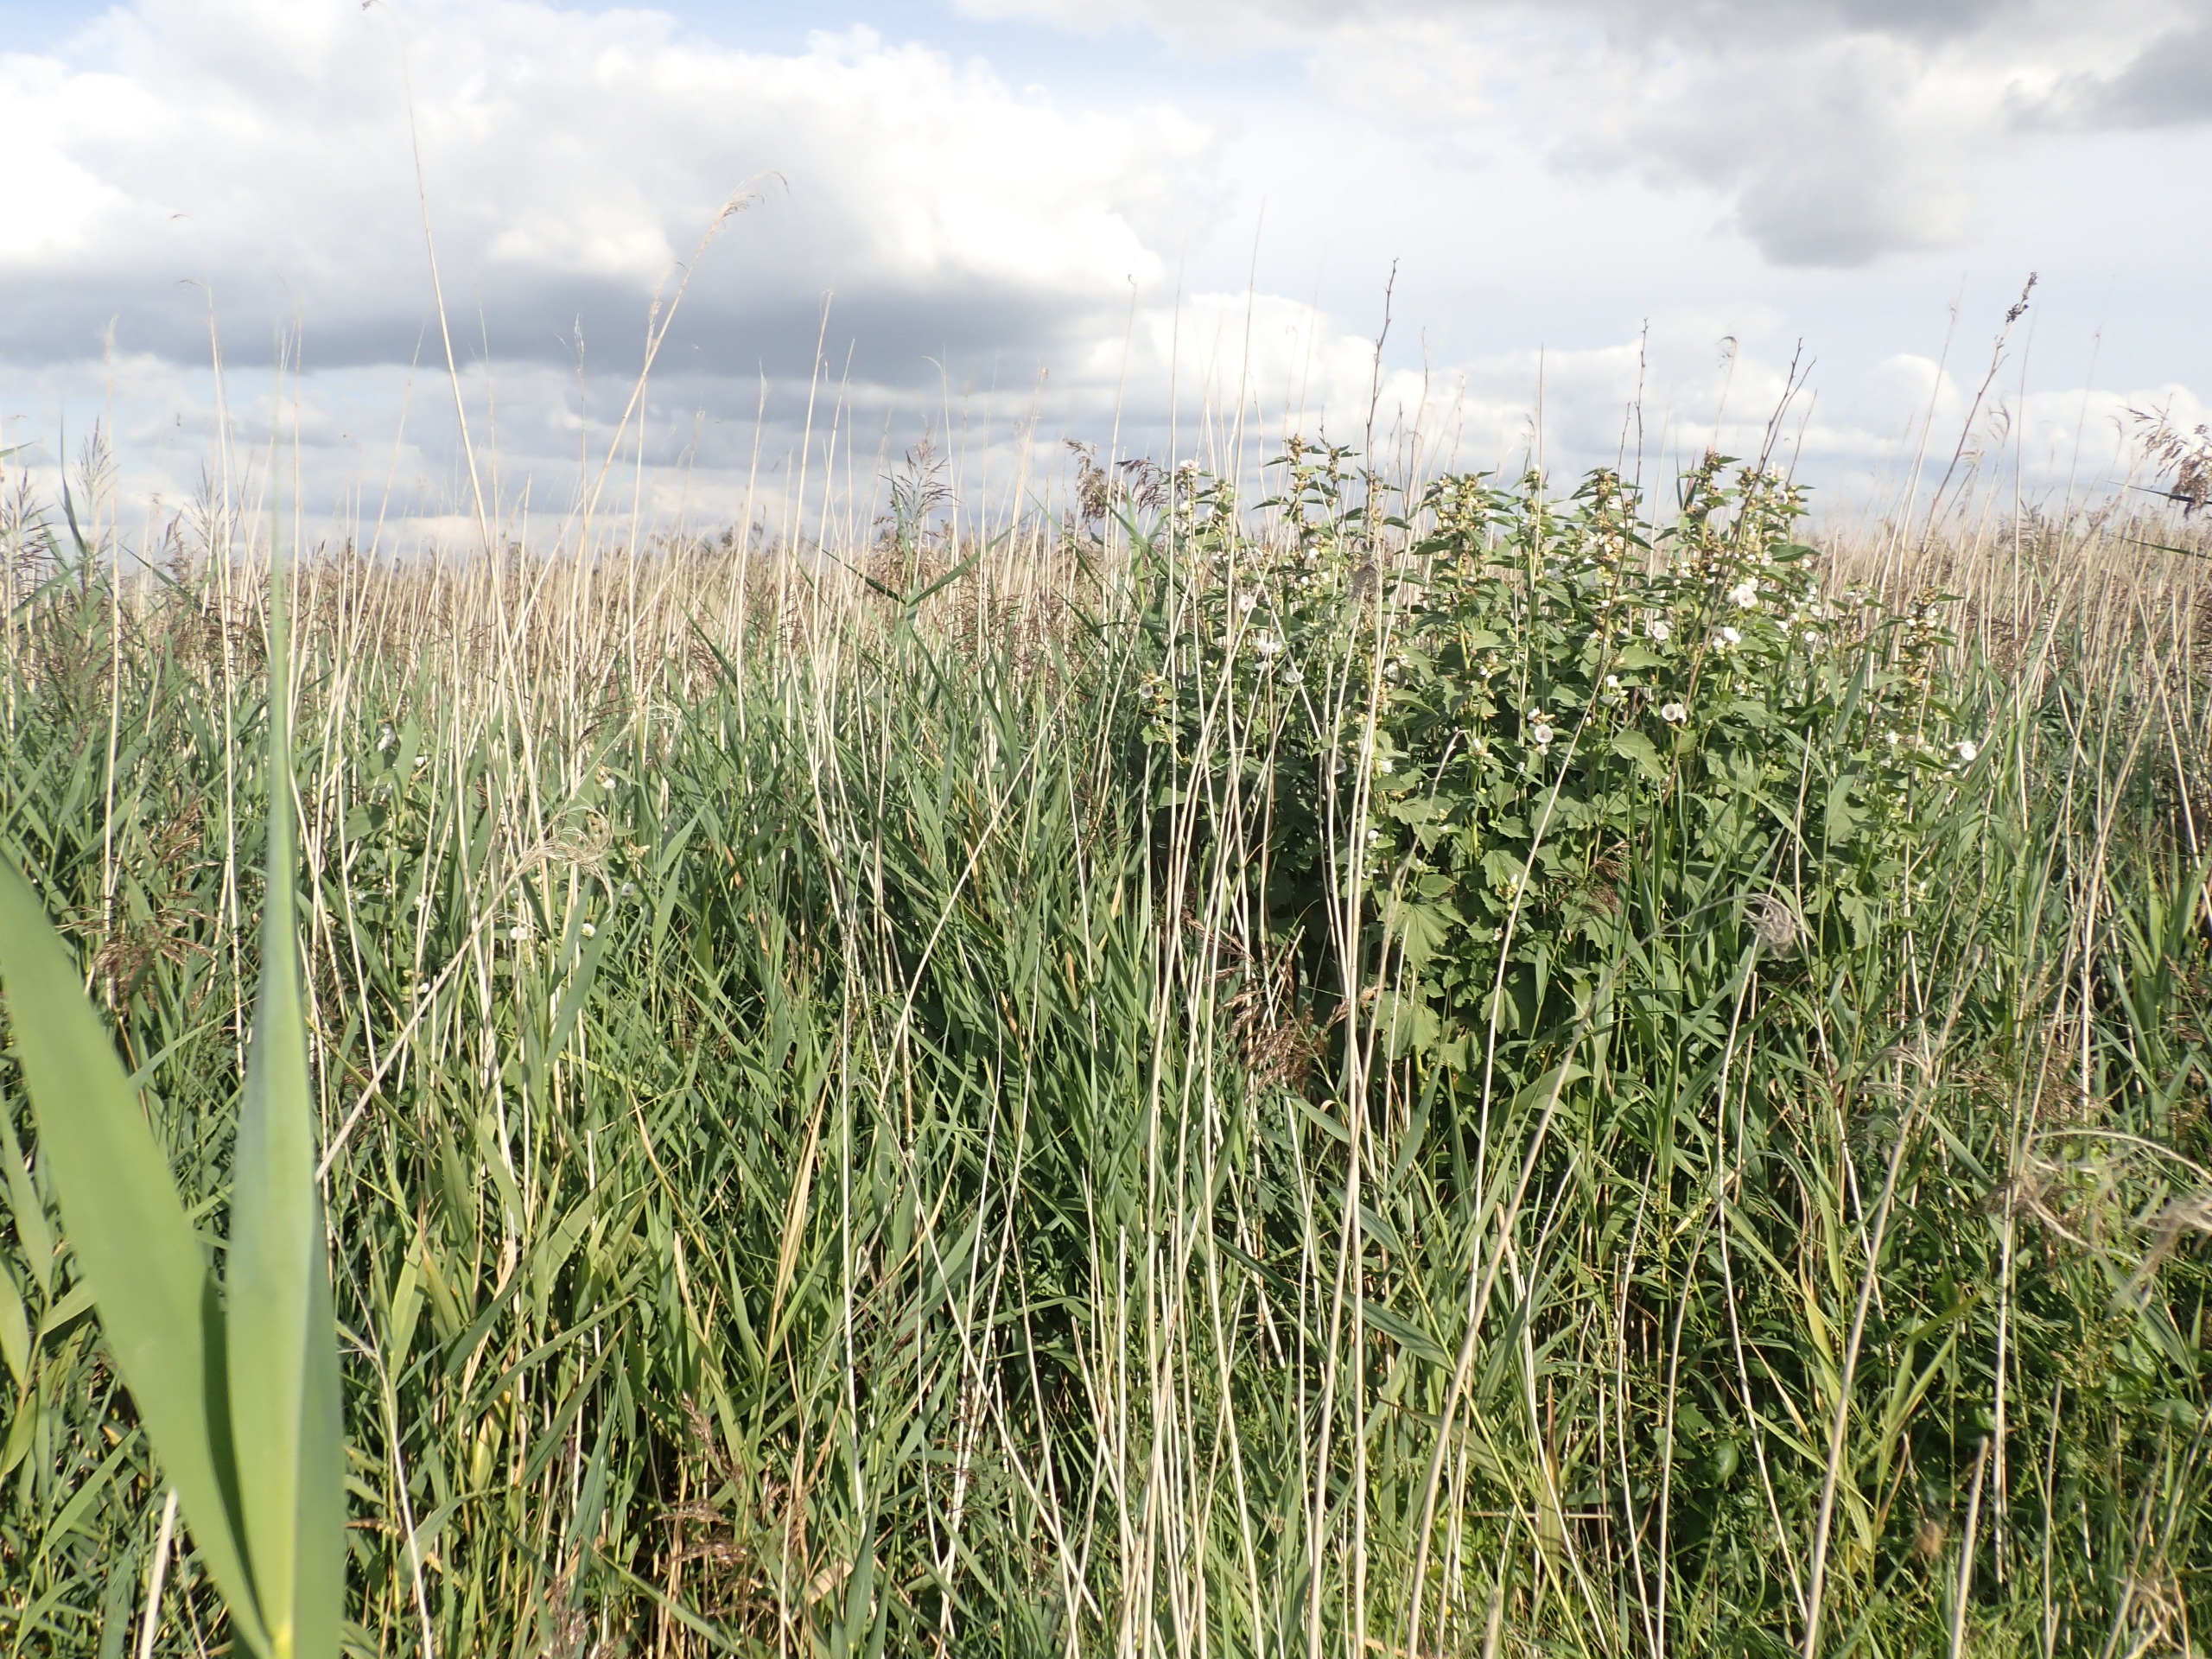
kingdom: Plantae
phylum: Tracheophyta
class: Magnoliopsida
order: Malvales
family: Malvaceae
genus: Althaea
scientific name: Althaea officinalis
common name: Lægestokrose
